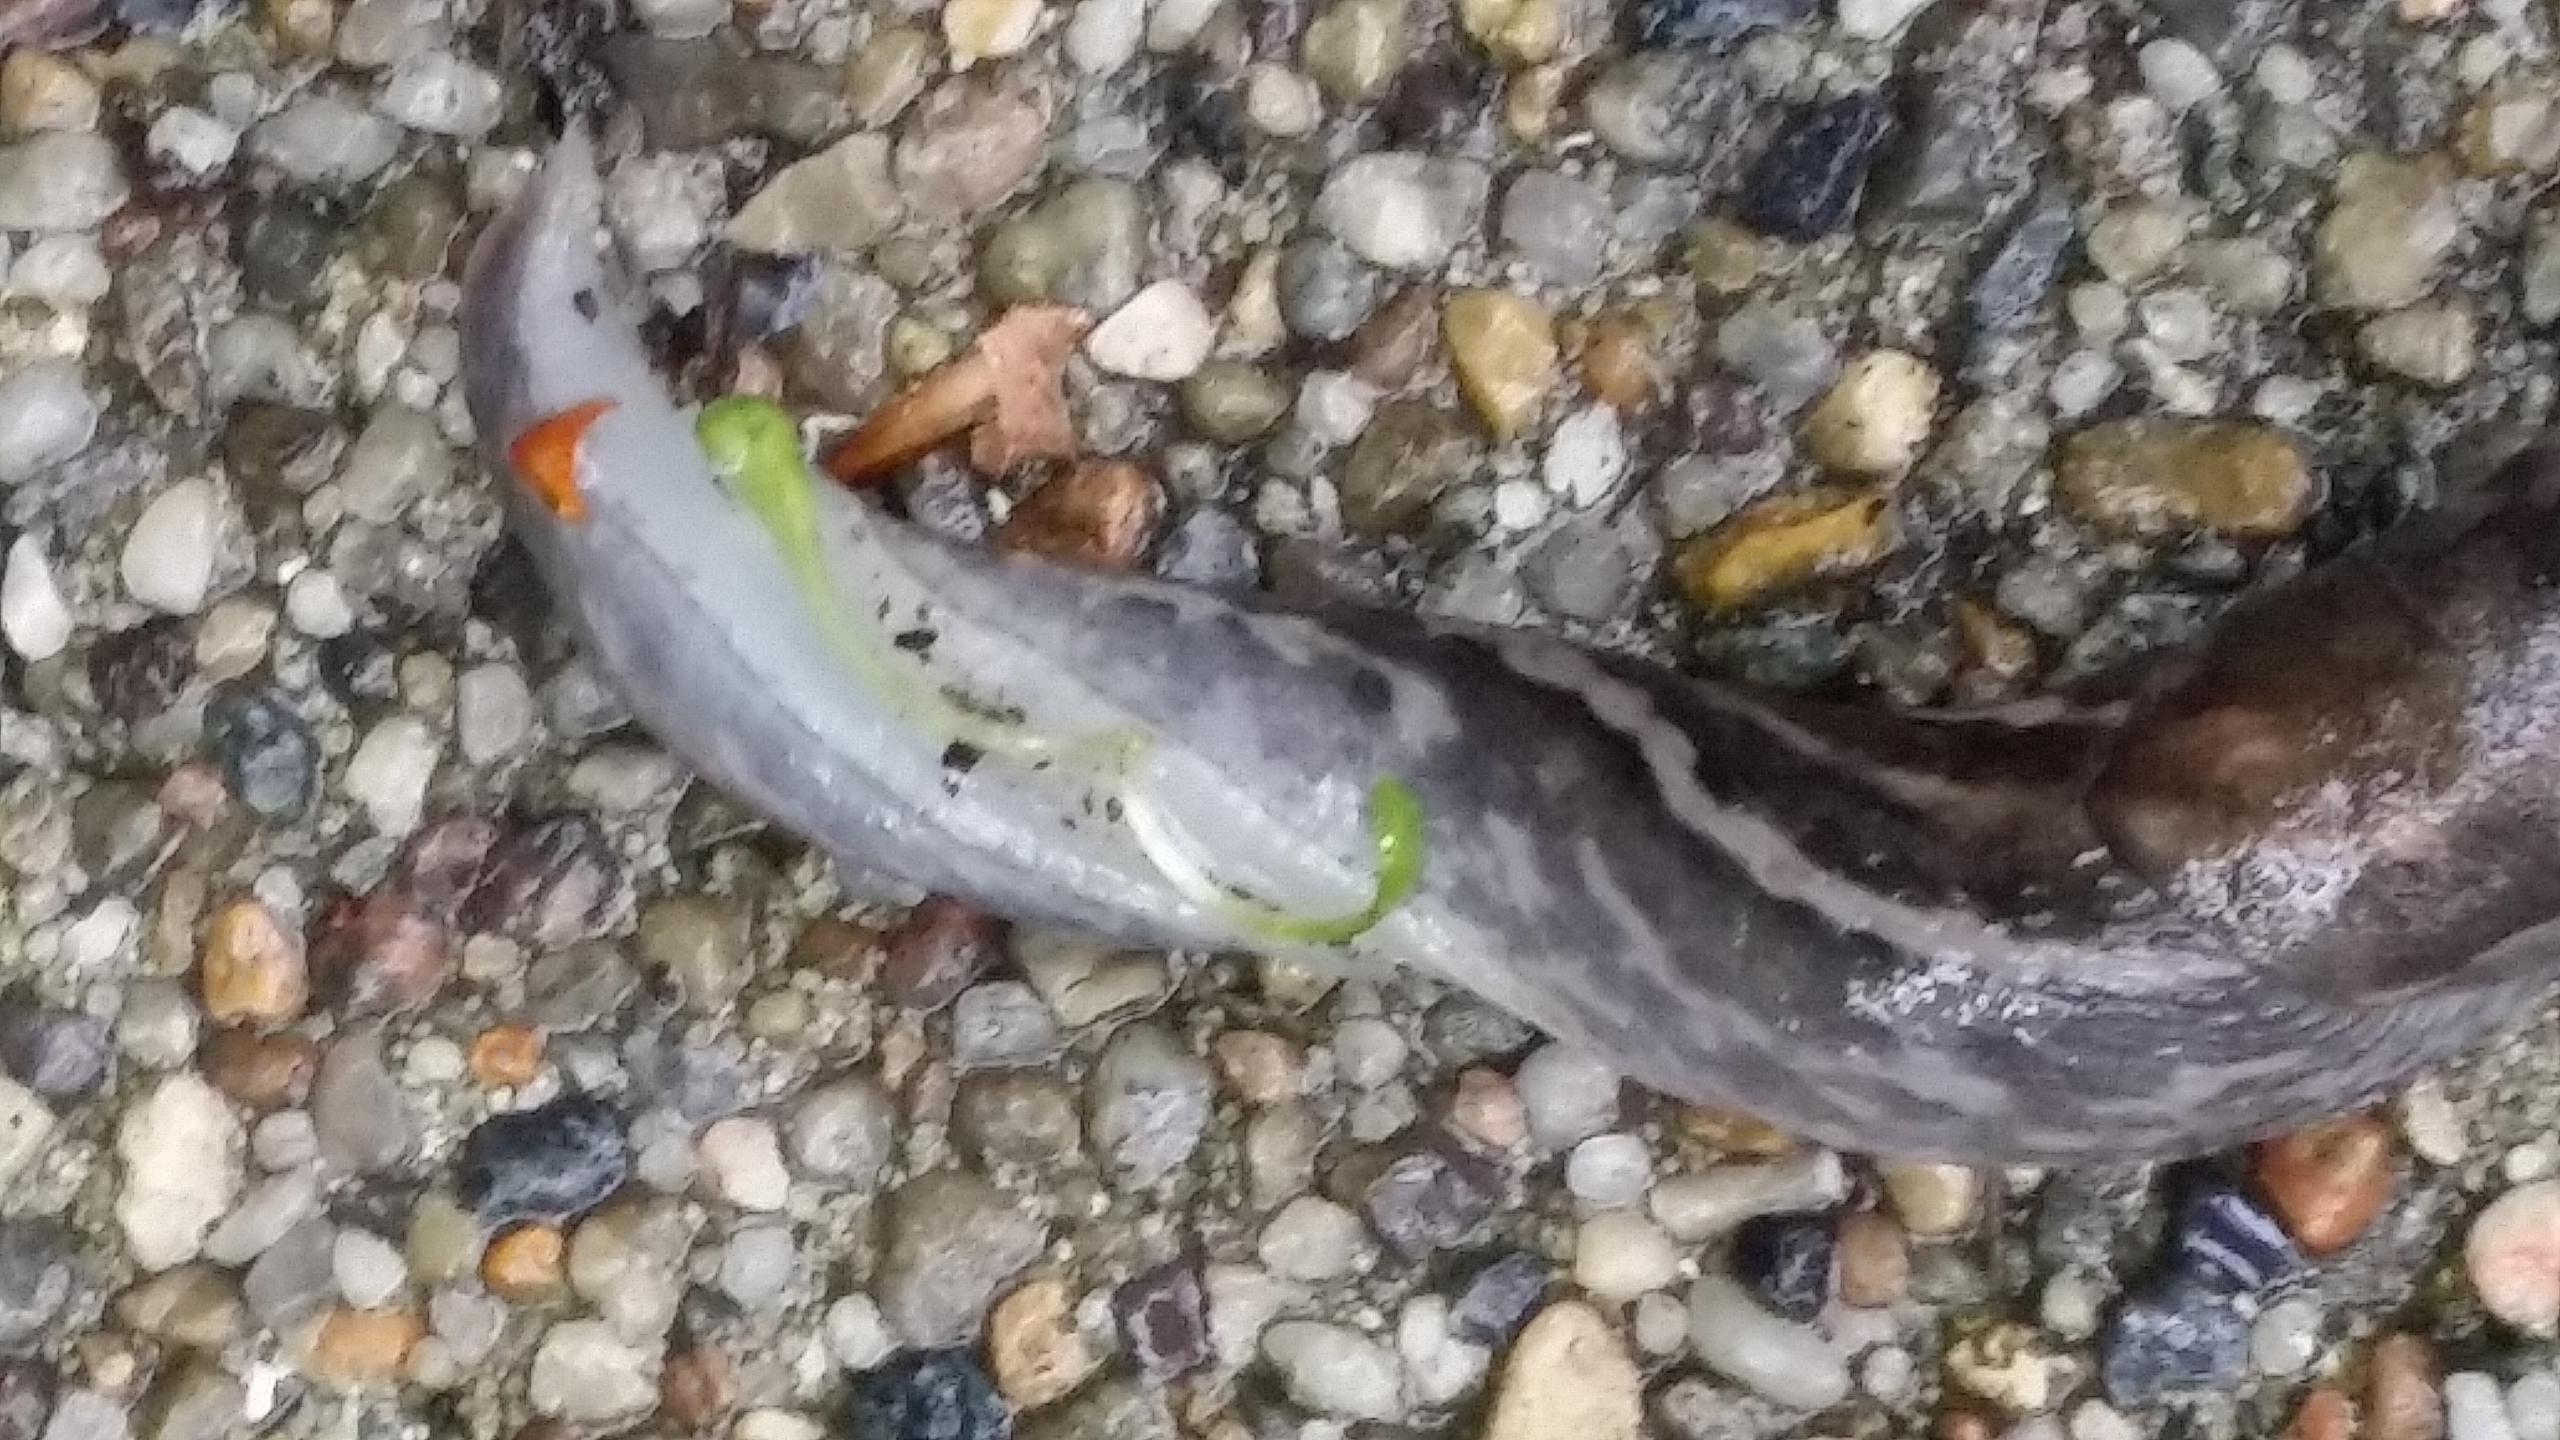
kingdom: Animalia
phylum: Mollusca
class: Gastropoda
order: Stylommatophora
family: Limacidae
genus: Limax
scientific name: Limax maximus
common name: Pantersnegl
